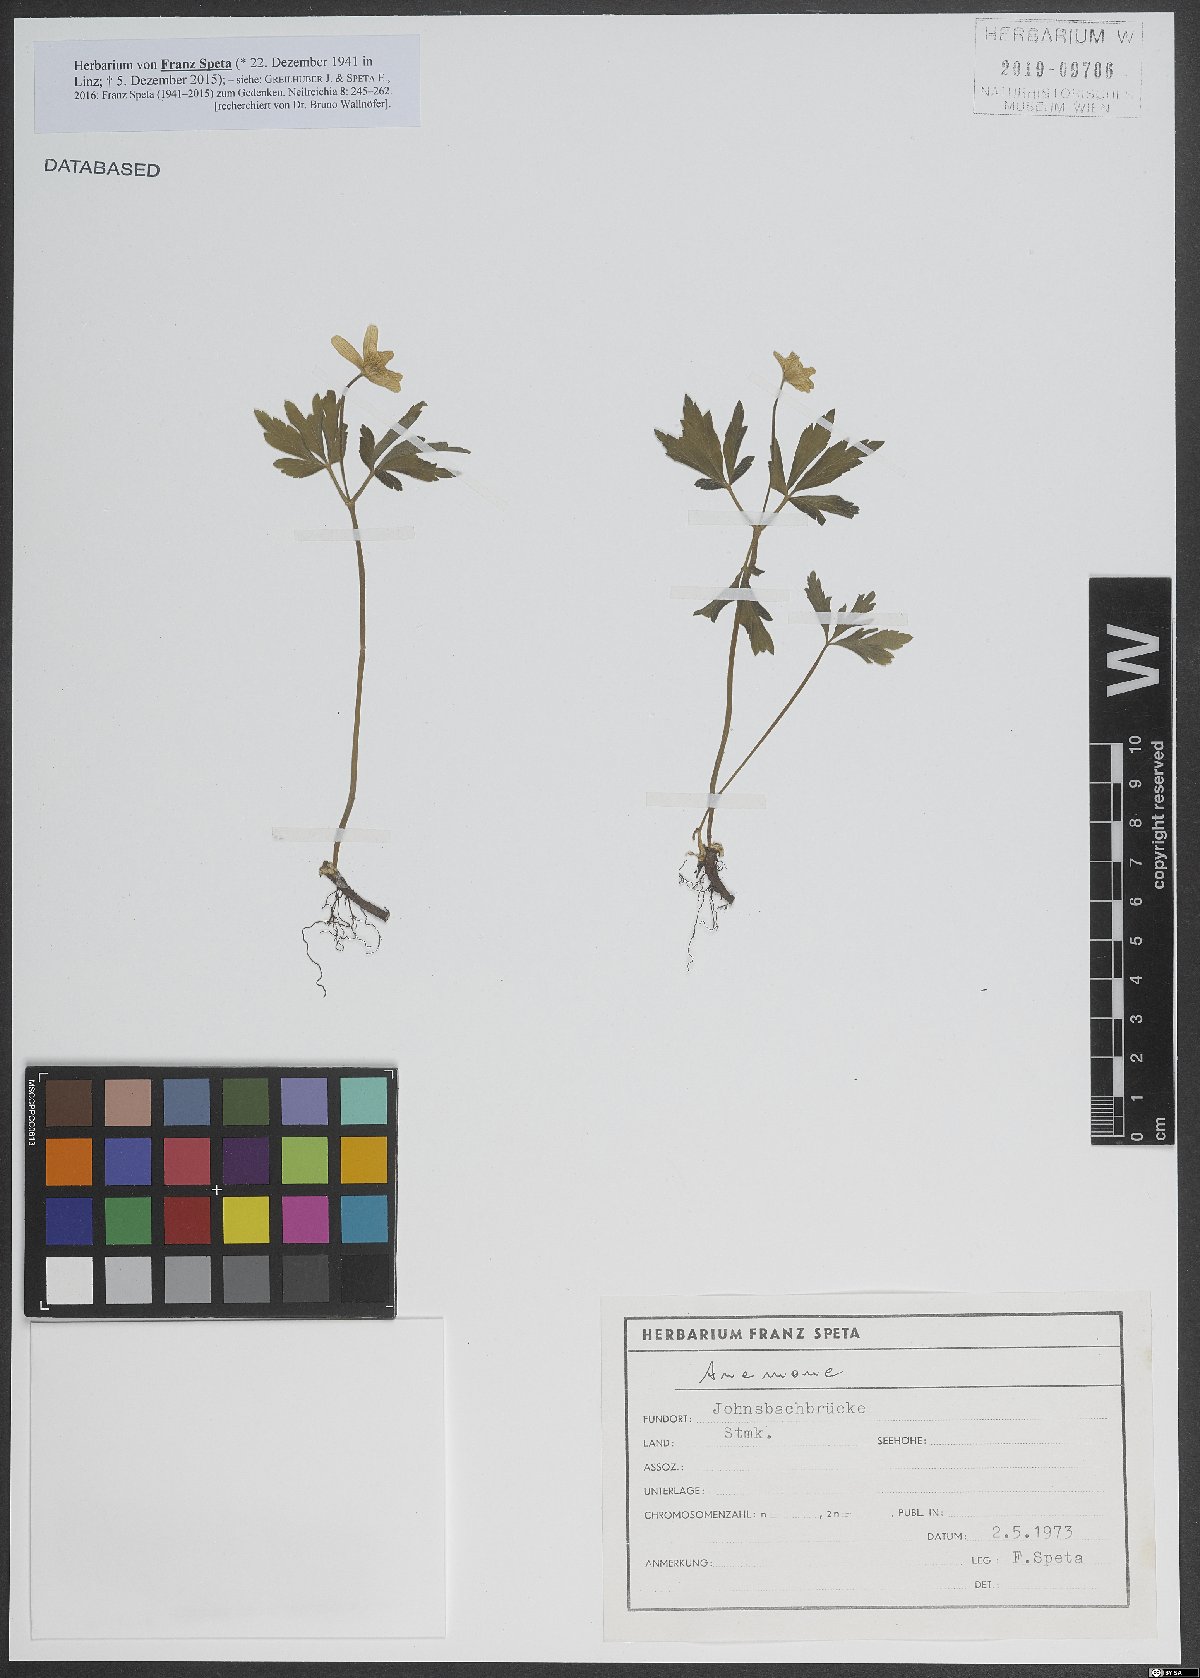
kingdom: Plantae
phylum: Tracheophyta
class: Magnoliopsida
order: Ranunculales
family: Ranunculaceae
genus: Anemone
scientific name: Anemone
